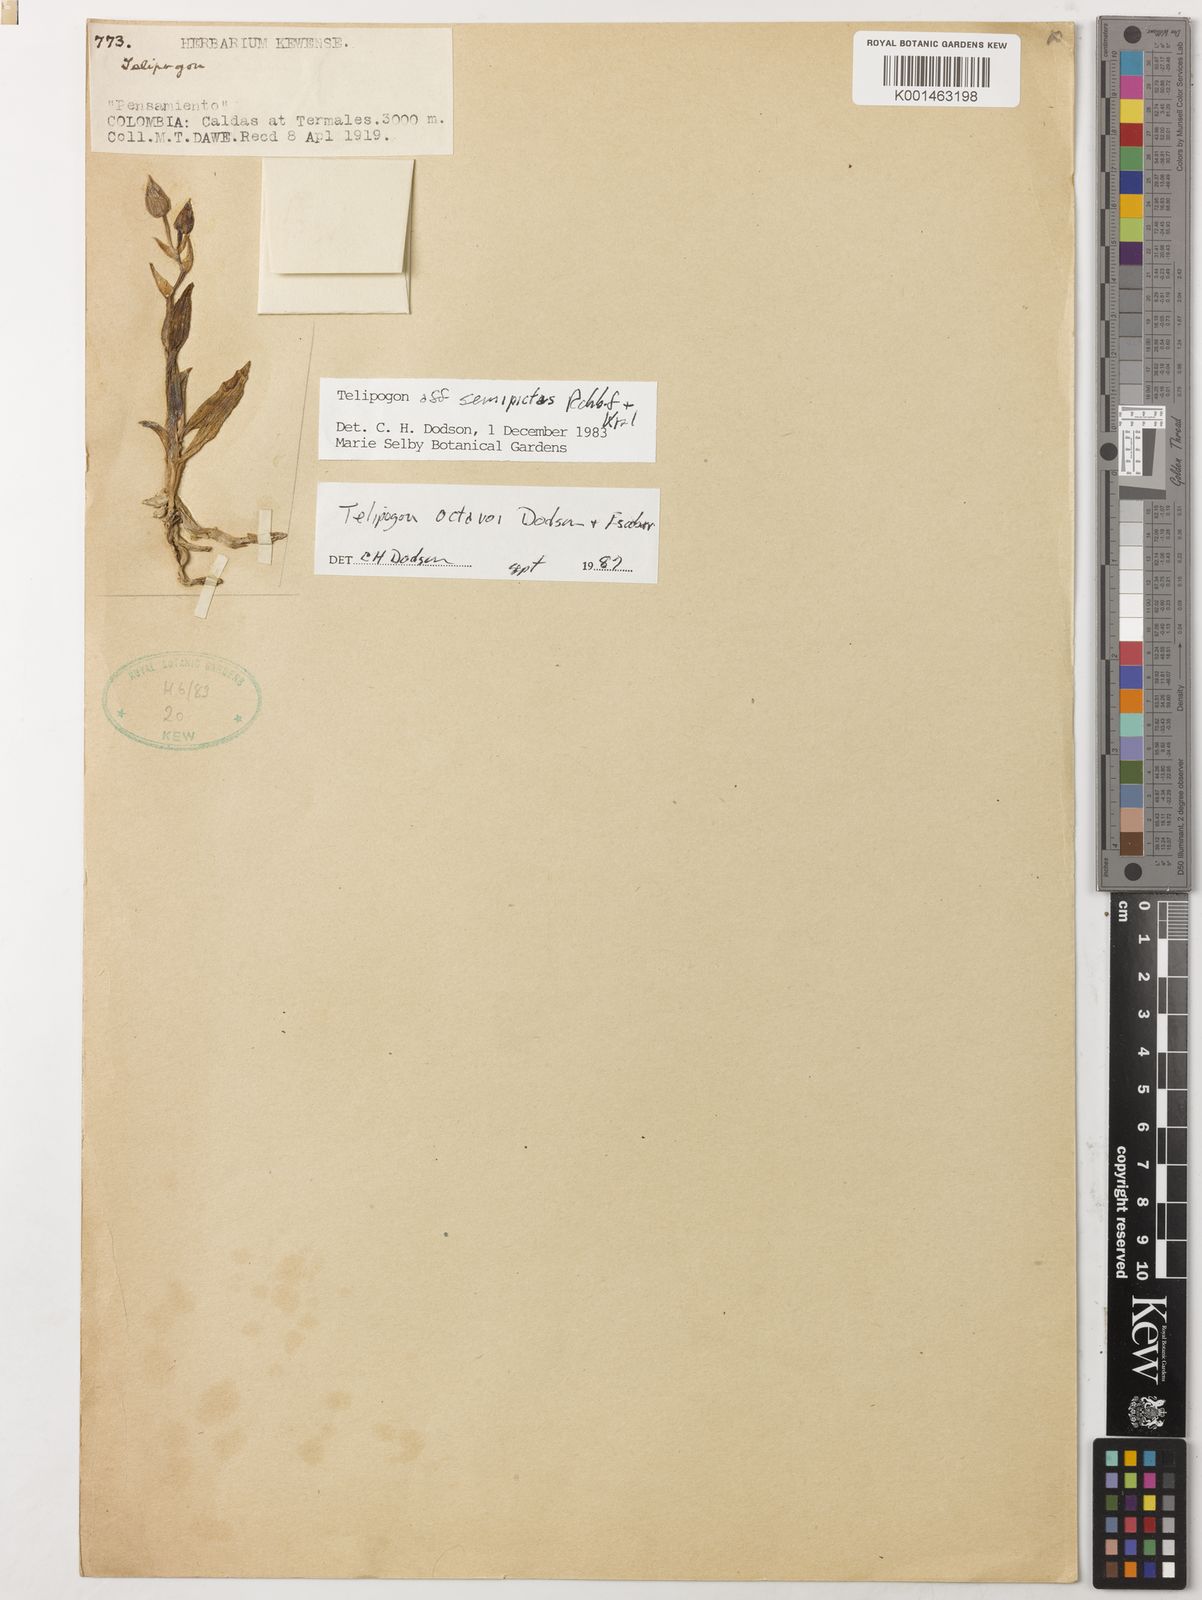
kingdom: Plantae
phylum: Tracheophyta
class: Liliopsida
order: Asparagales
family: Orchidaceae
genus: Telipogon
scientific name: Telipogon octavioi
